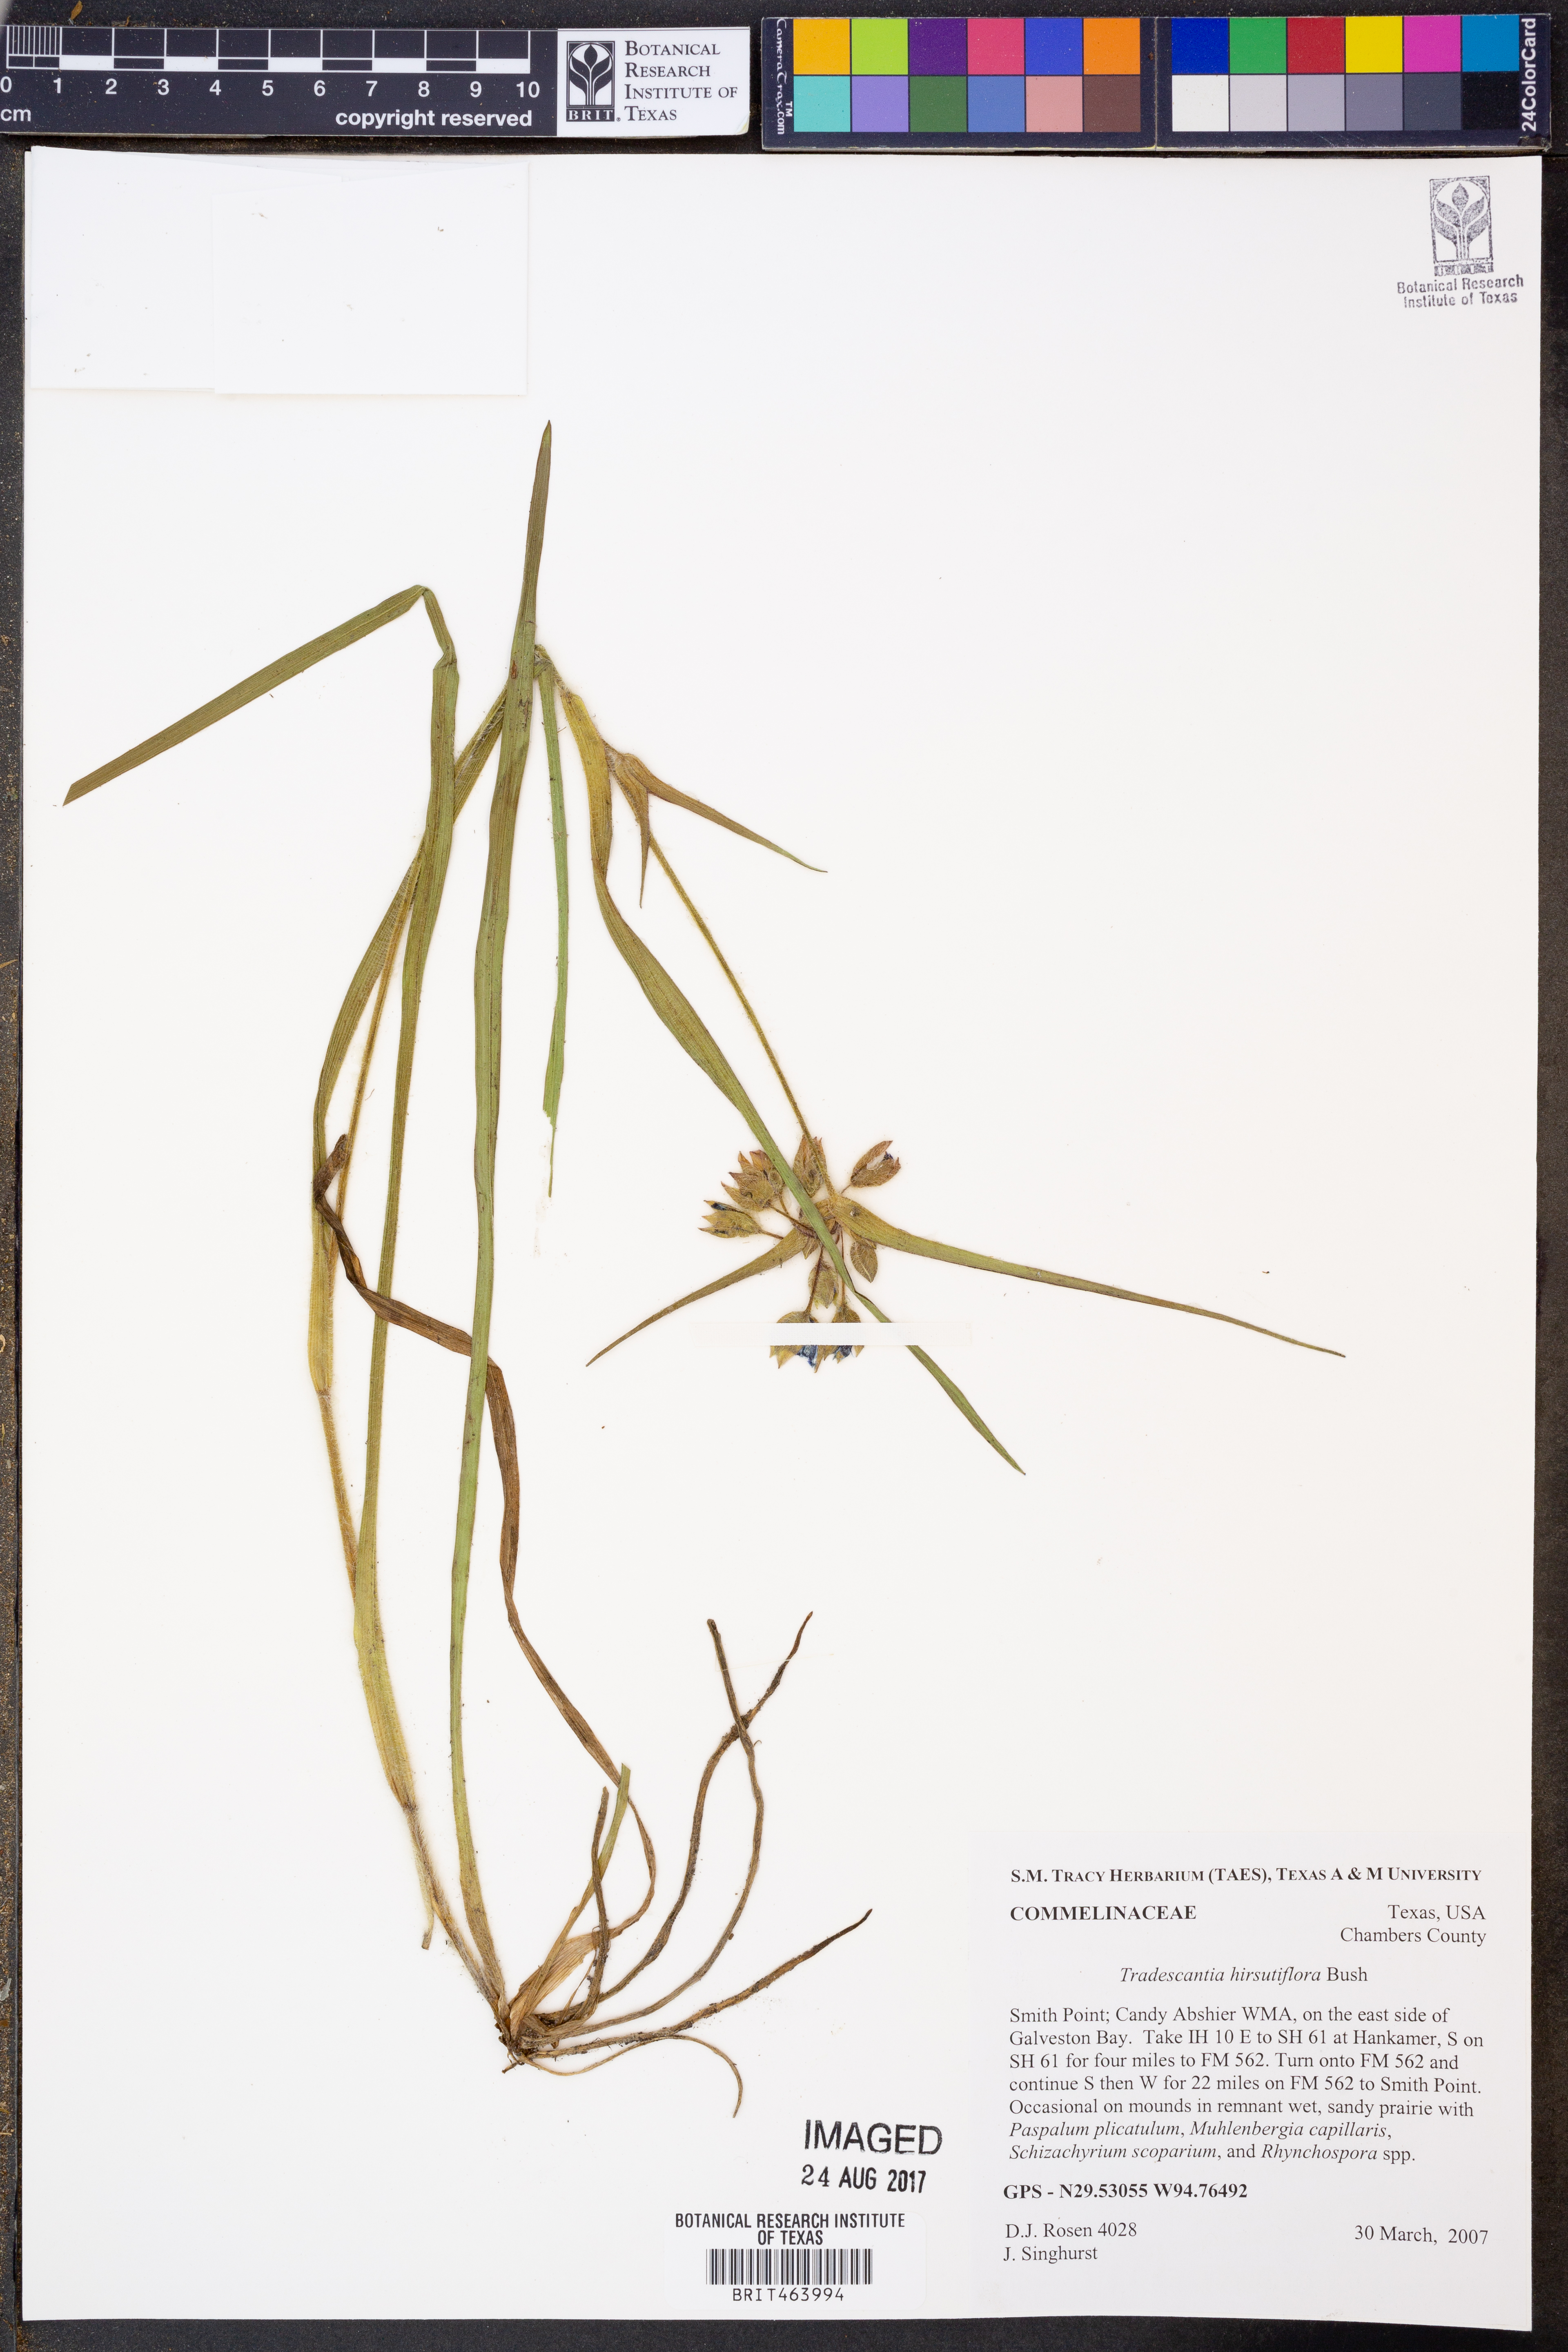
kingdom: Plantae
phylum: Tracheophyta
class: Liliopsida
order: Commelinales
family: Commelinaceae
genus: Tradescantia
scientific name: Tradescantia hirsutiflora
